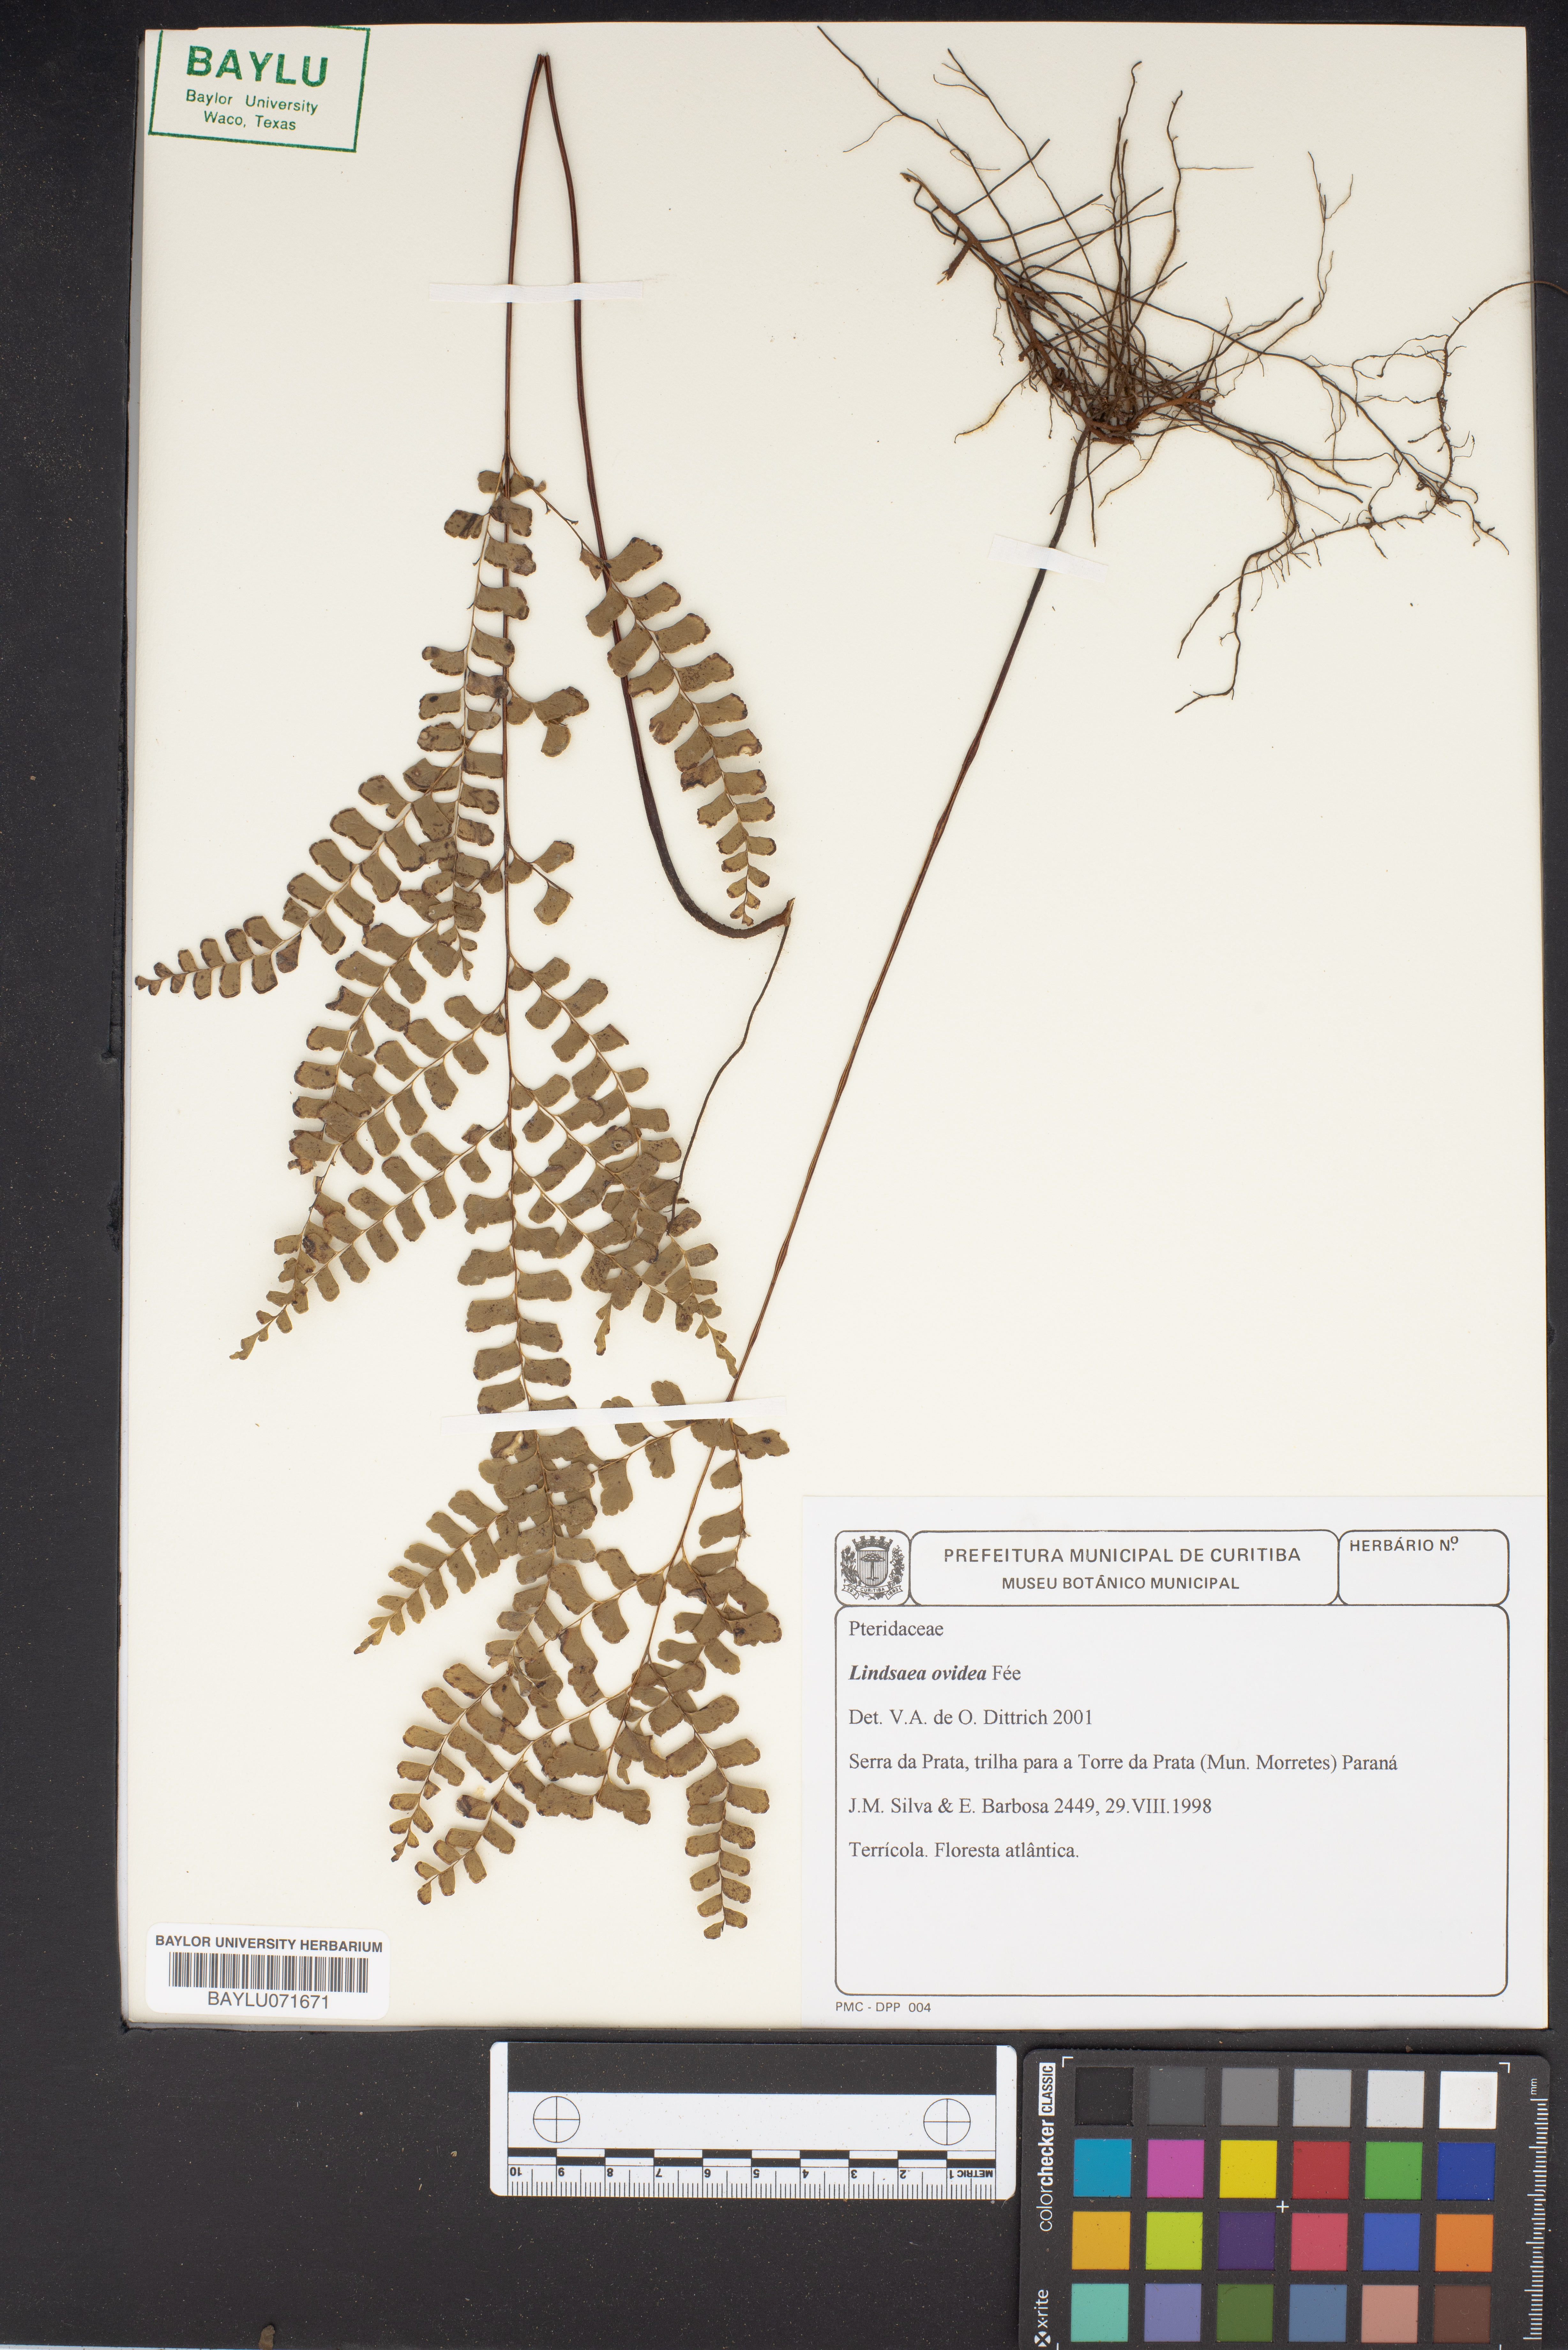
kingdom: Plantae
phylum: Tracheophyta
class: Polypodiopsida
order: Polypodiales
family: Lindsaeaceae
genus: Lindsaea
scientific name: Lindsaea ovoidea
